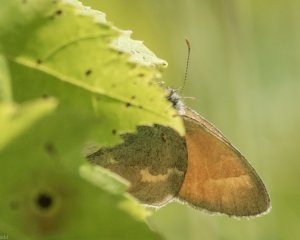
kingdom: Animalia
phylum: Arthropoda
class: Insecta
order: Lepidoptera
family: Nymphalidae
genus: Coenonympha
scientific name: Coenonympha tullia
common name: Large Heath
